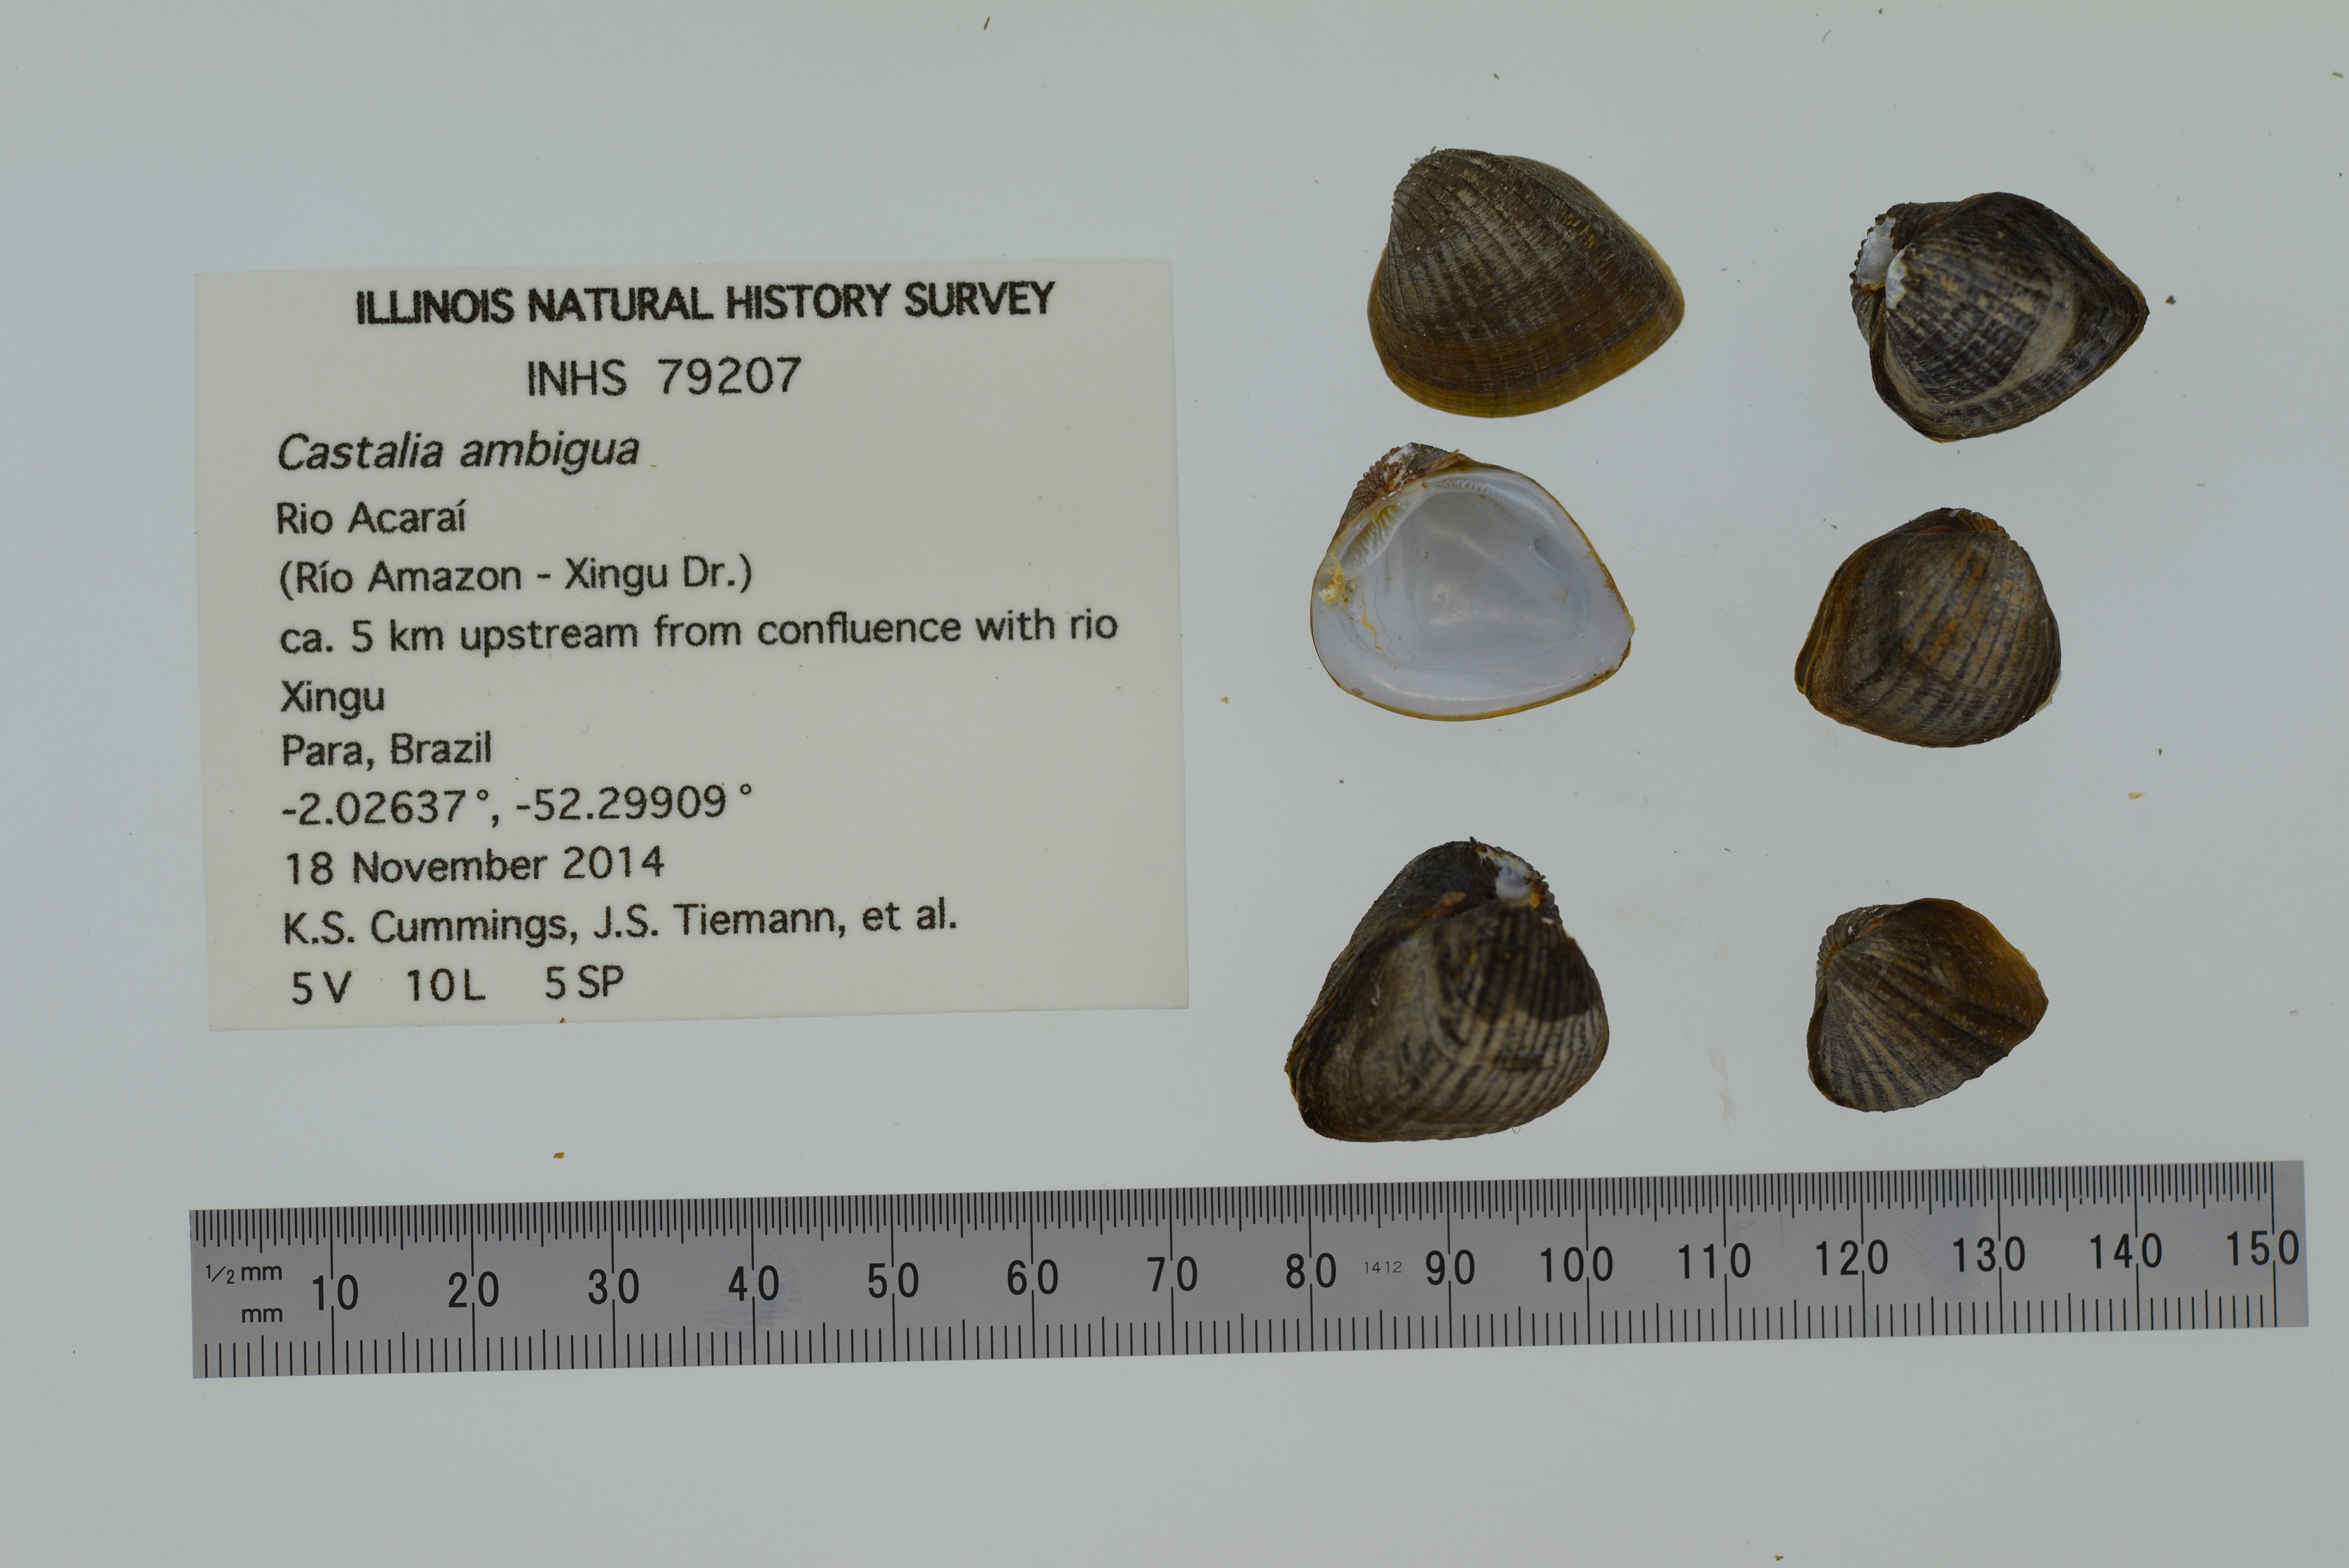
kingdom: Animalia
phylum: Mollusca
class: Bivalvia
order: Unionida
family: Hyriidae
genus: Castalia
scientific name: Castalia ambigua
